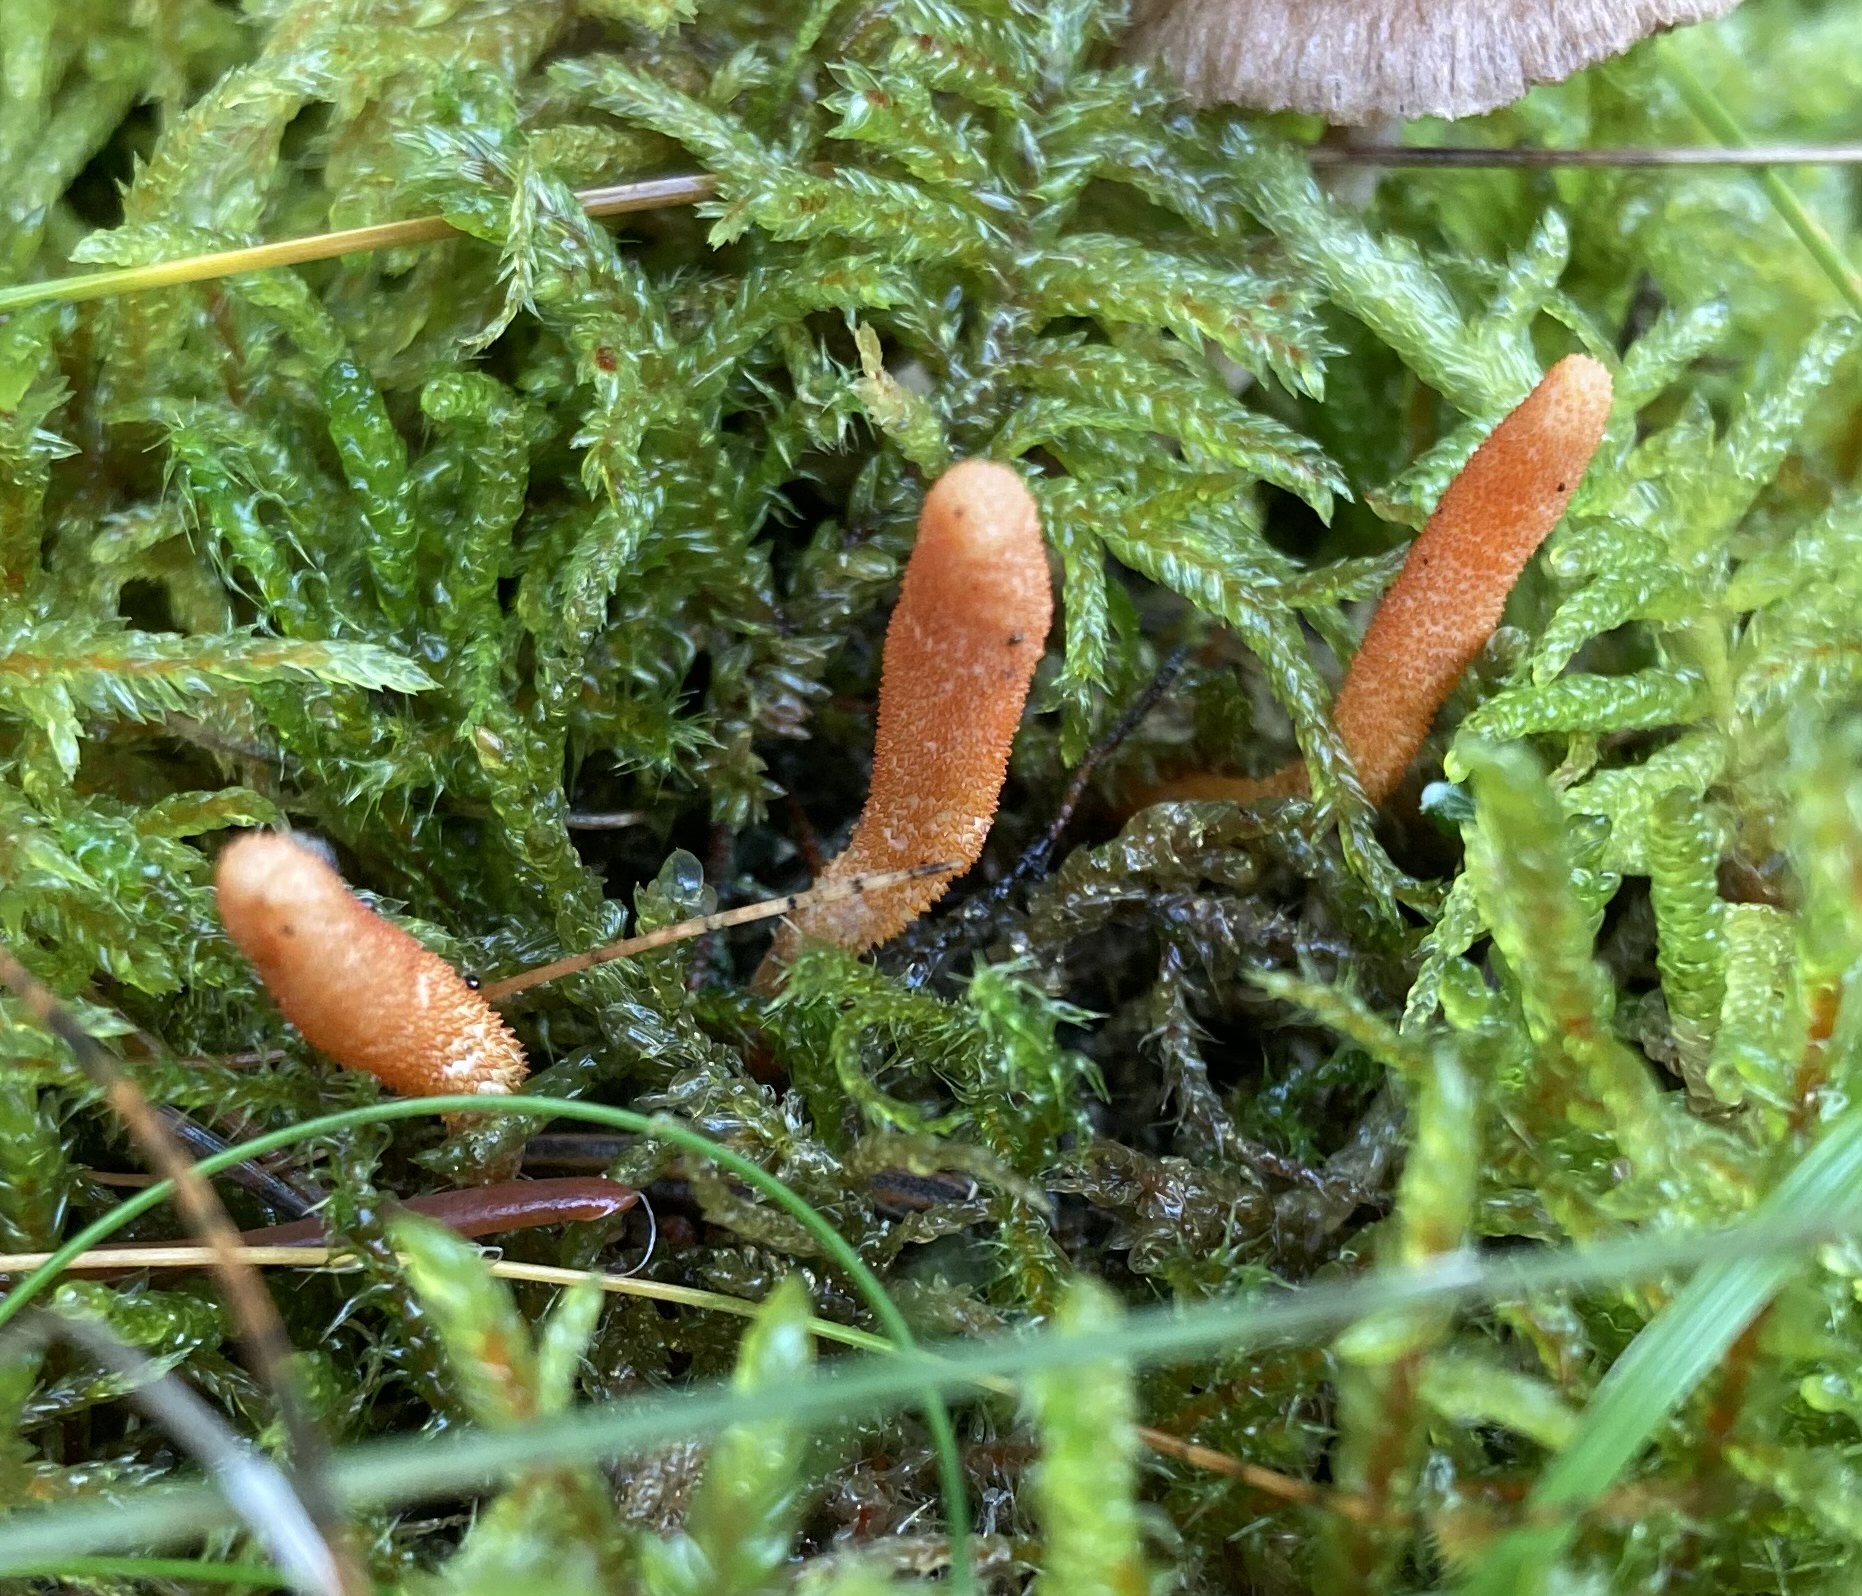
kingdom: Fungi
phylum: Ascomycota
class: Sordariomycetes
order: Hypocreales
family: Cordycipitaceae
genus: Cordyceps
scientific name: Cordyceps militaris
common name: puppe-snyltekølle
